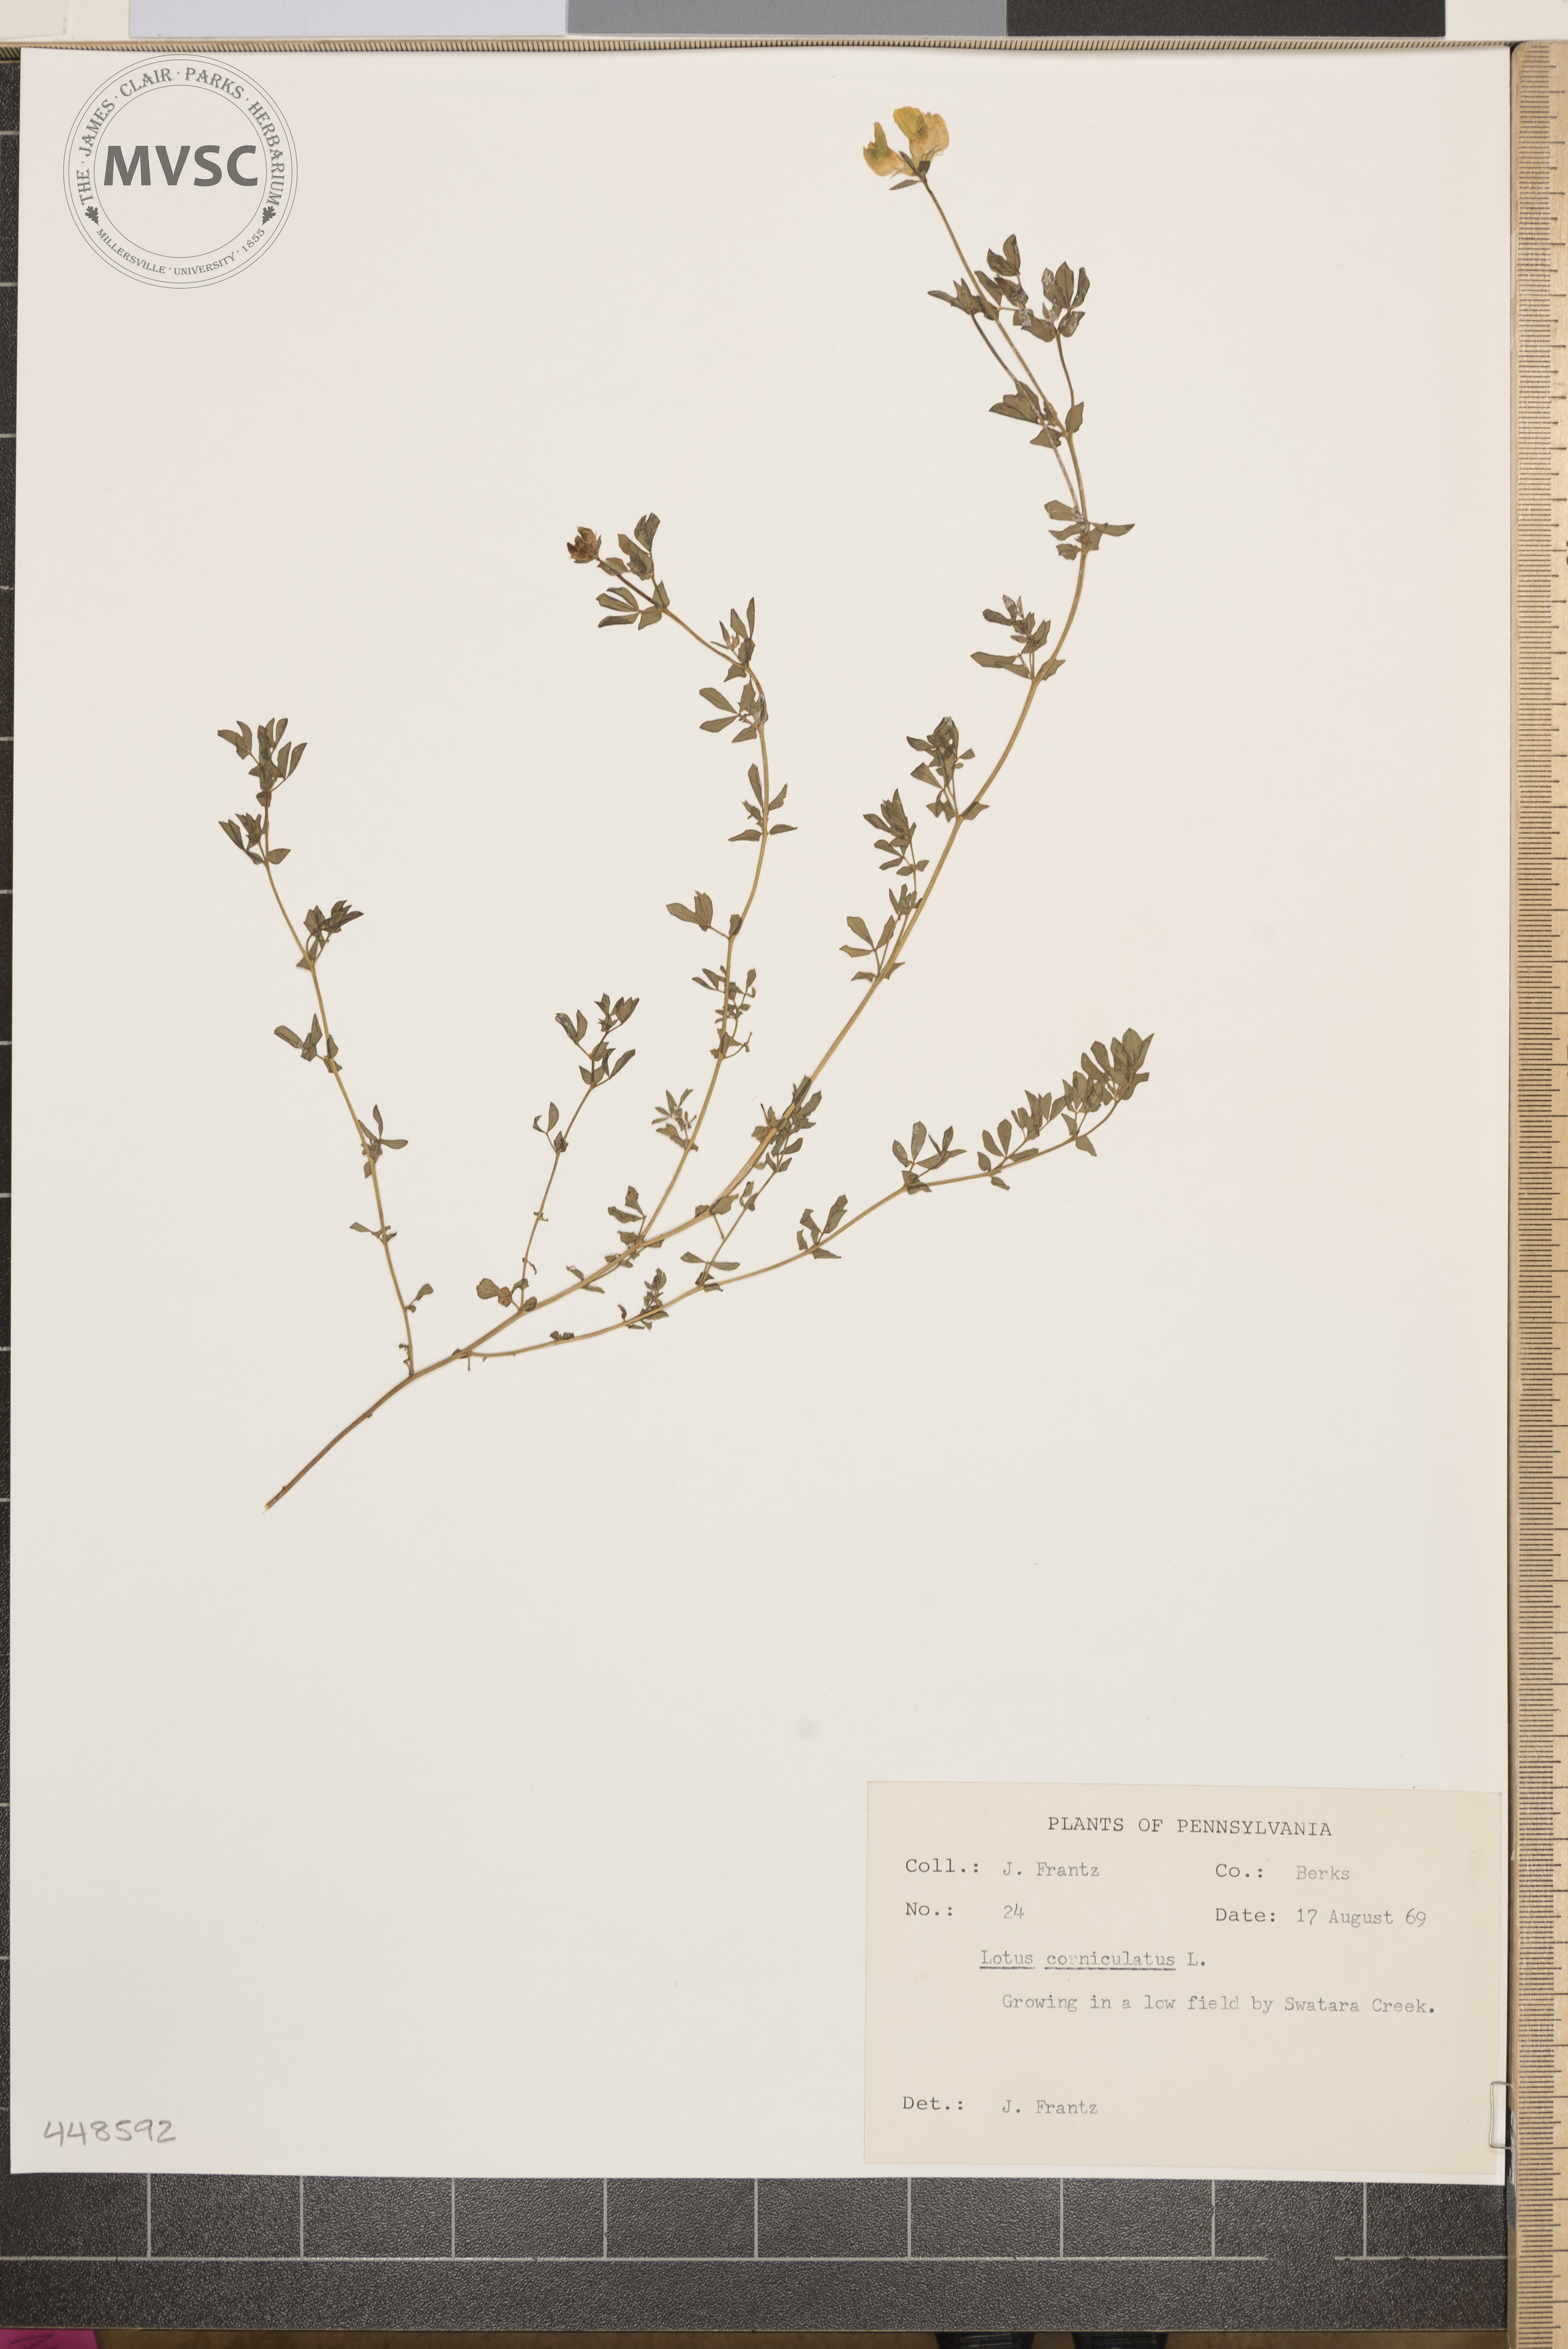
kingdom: Plantae
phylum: Tracheophyta
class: Magnoliopsida
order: Fabales
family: Fabaceae
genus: Lotus
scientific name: Lotus corniculatus
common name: Common bird's-foot-trefoil
